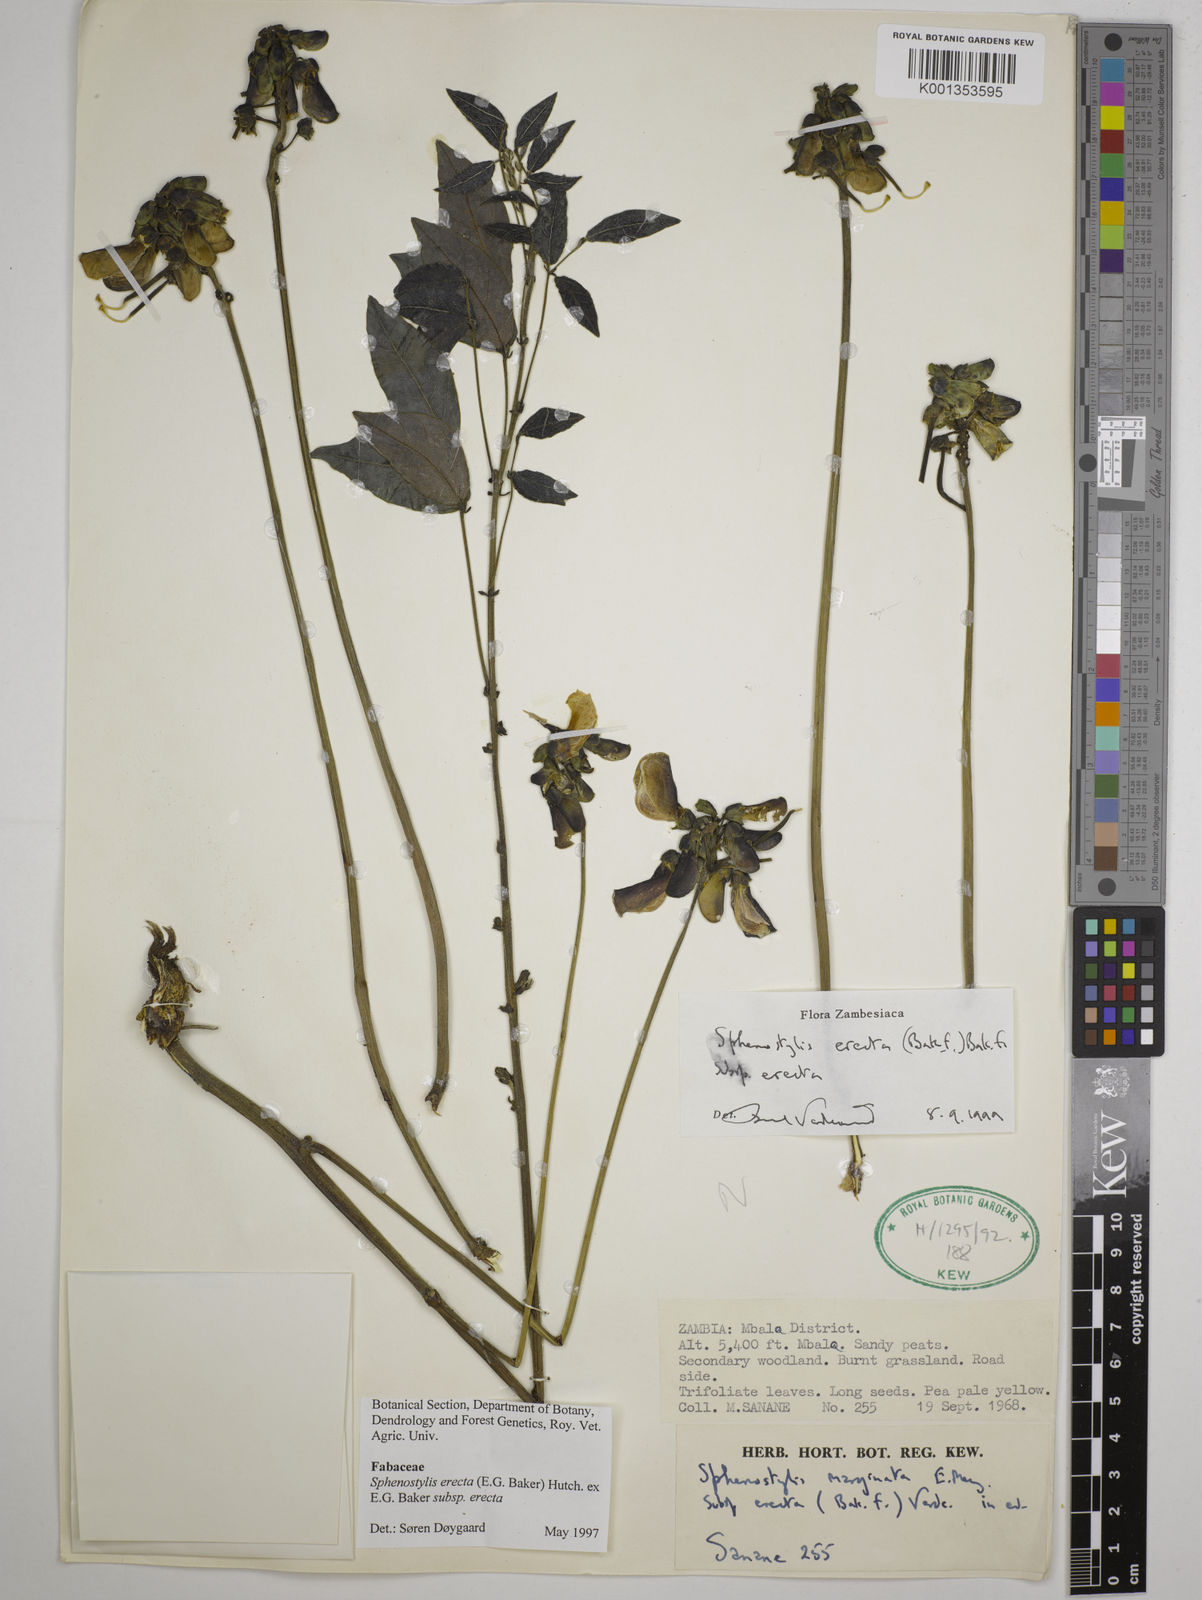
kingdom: Plantae
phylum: Tracheophyta
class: Magnoliopsida
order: Fabales
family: Fabaceae
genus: Sphenostylis
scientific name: Sphenostylis erecta
